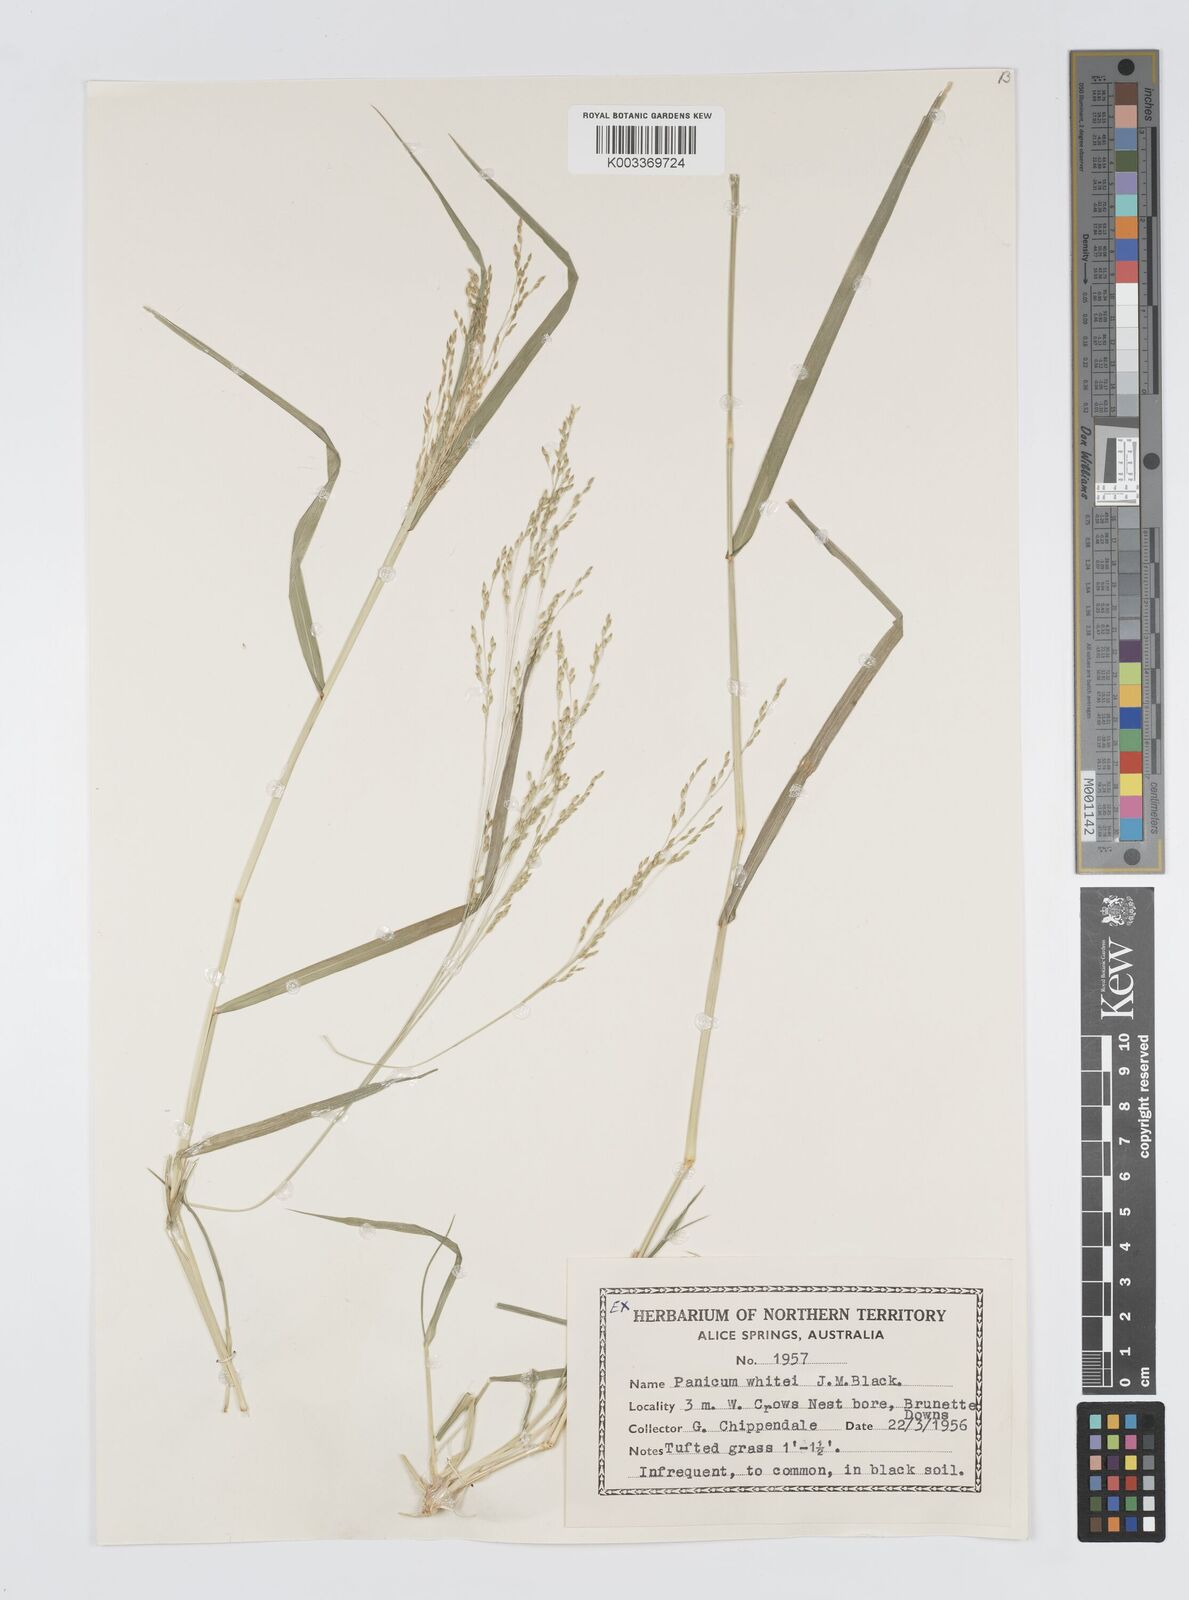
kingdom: Plantae
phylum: Tracheophyta
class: Liliopsida
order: Poales
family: Poaceae
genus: Panicum
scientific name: Panicum laevinode
